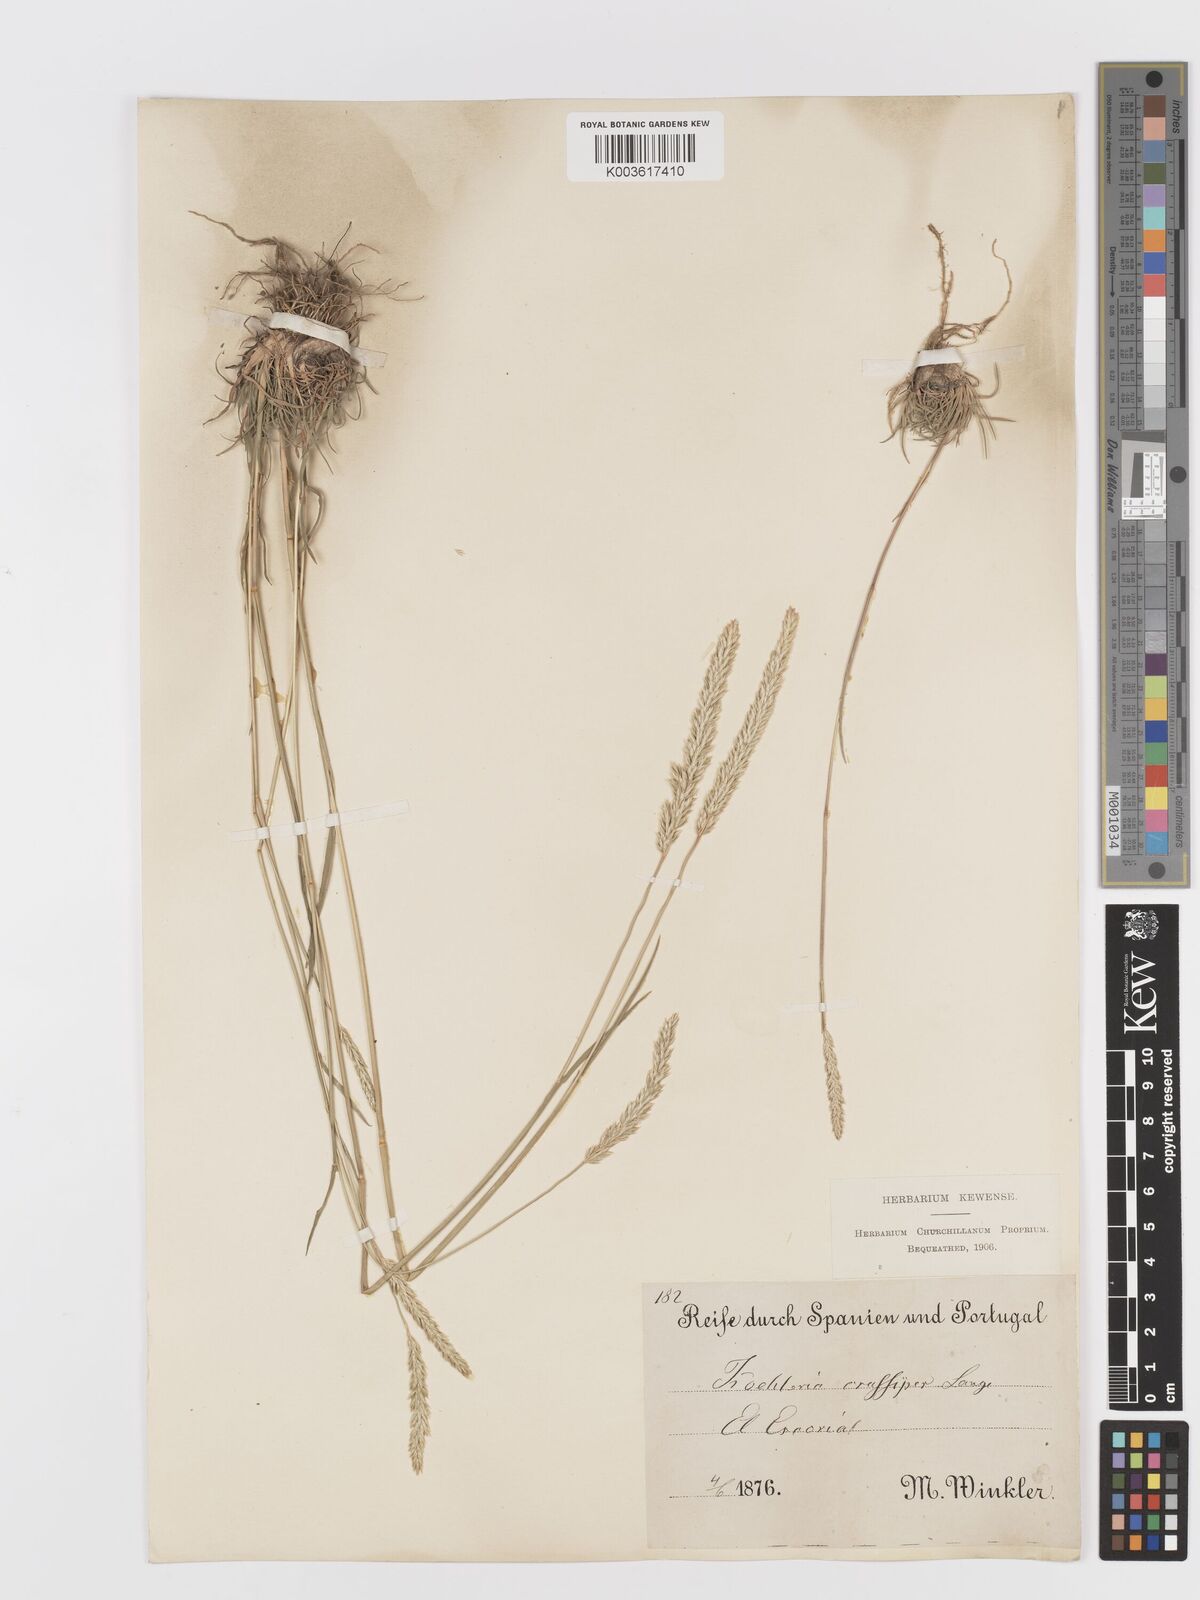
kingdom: Plantae
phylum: Tracheophyta
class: Liliopsida
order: Poales
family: Poaceae
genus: Koeleria
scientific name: Koeleria crassipes
